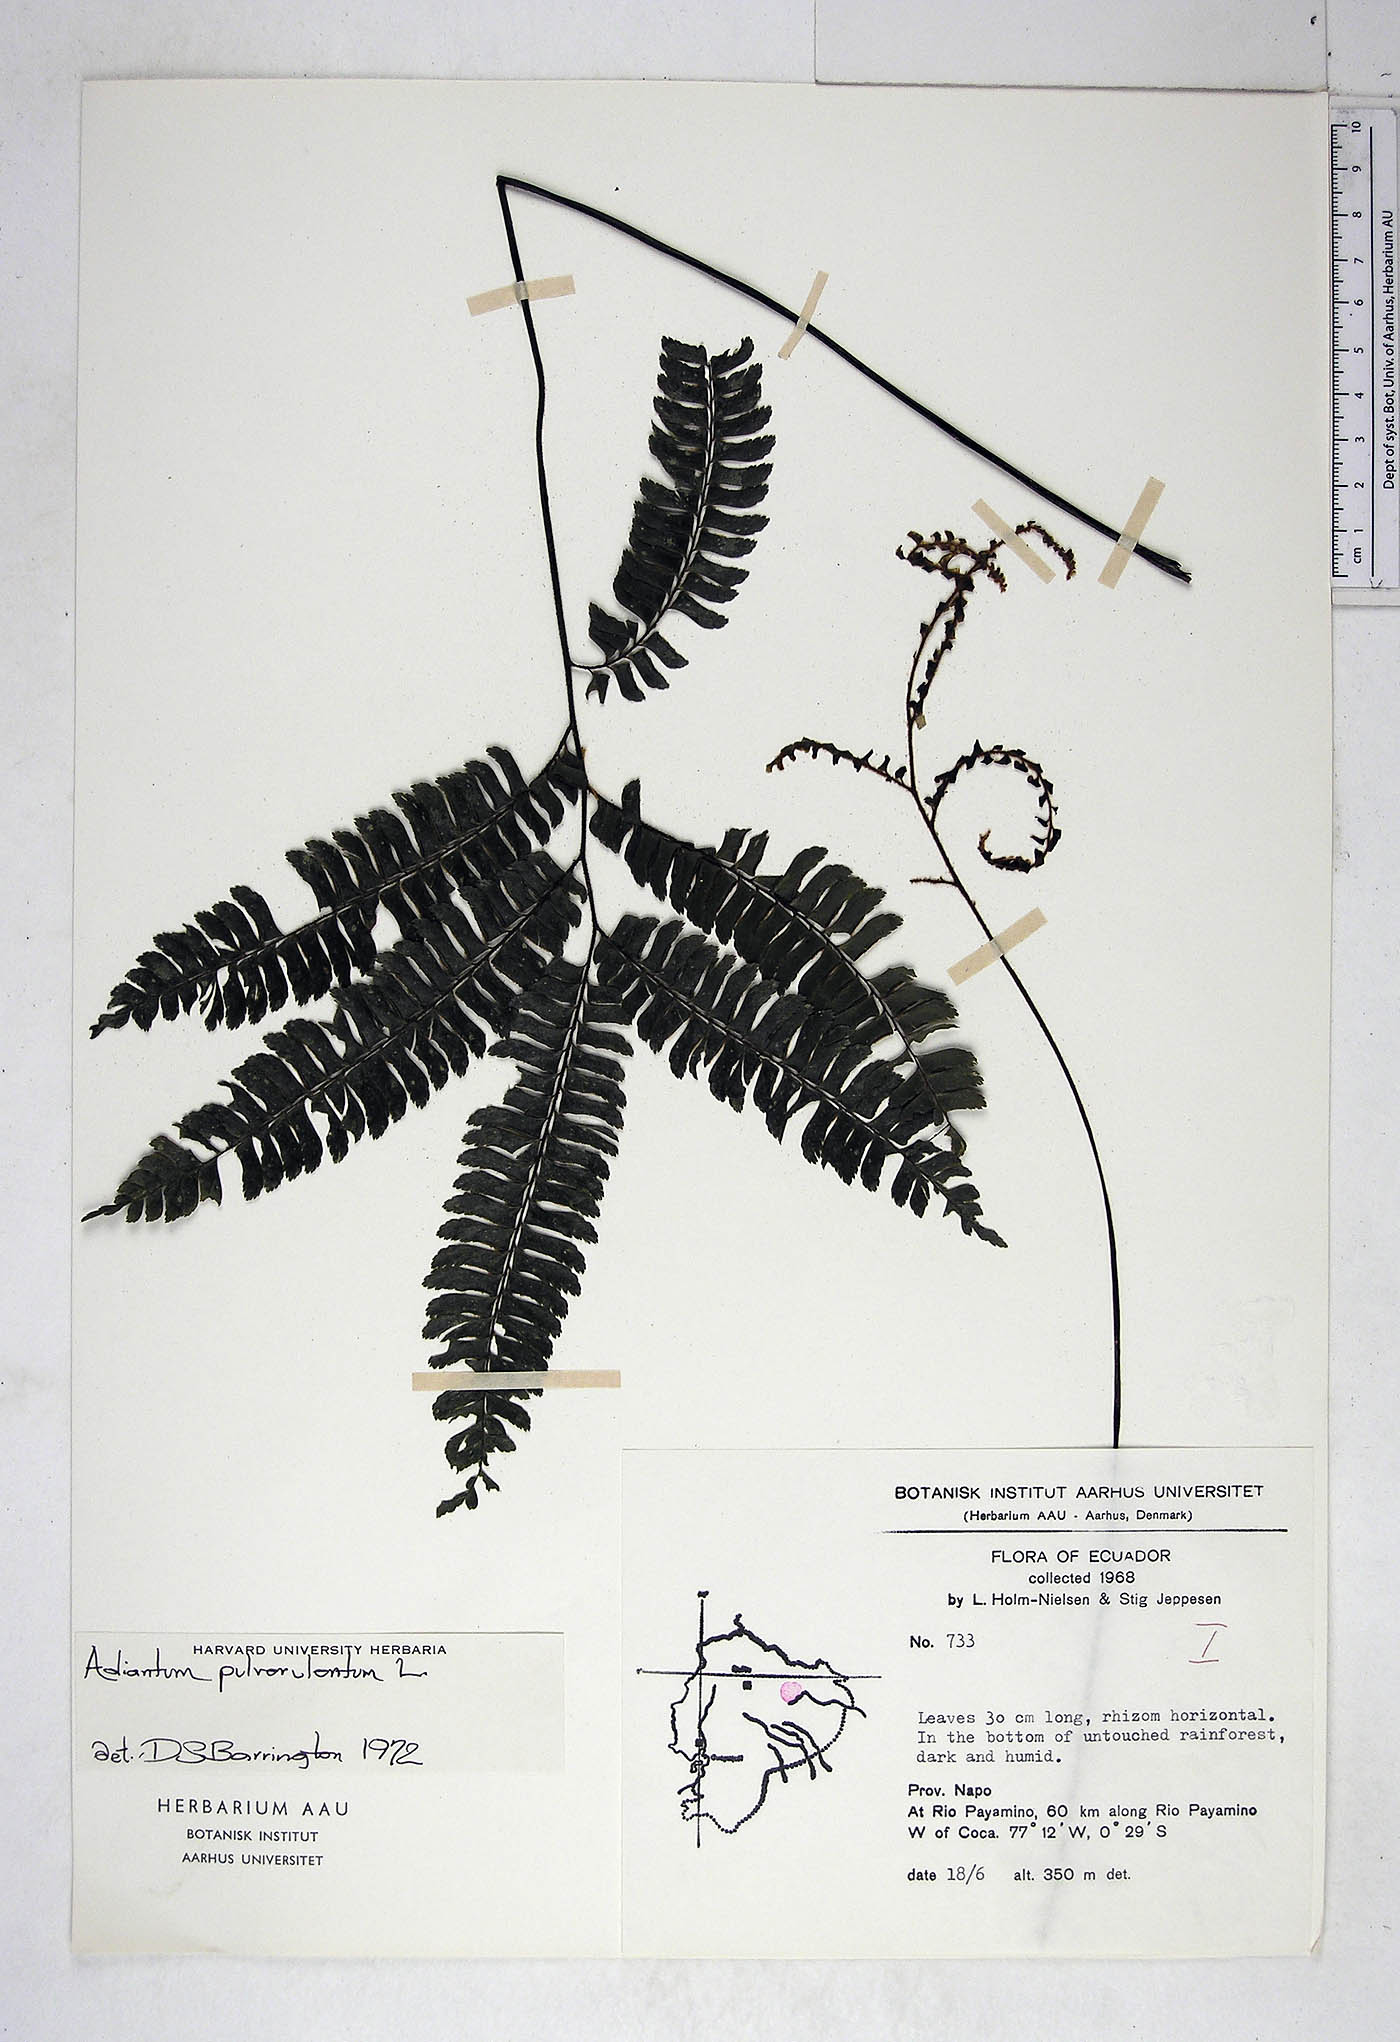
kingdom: Plantae
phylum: Tracheophyta
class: Polypodiopsida
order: Polypodiales
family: Pteridaceae
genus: Adiantum
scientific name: Adiantum pulverulentum
